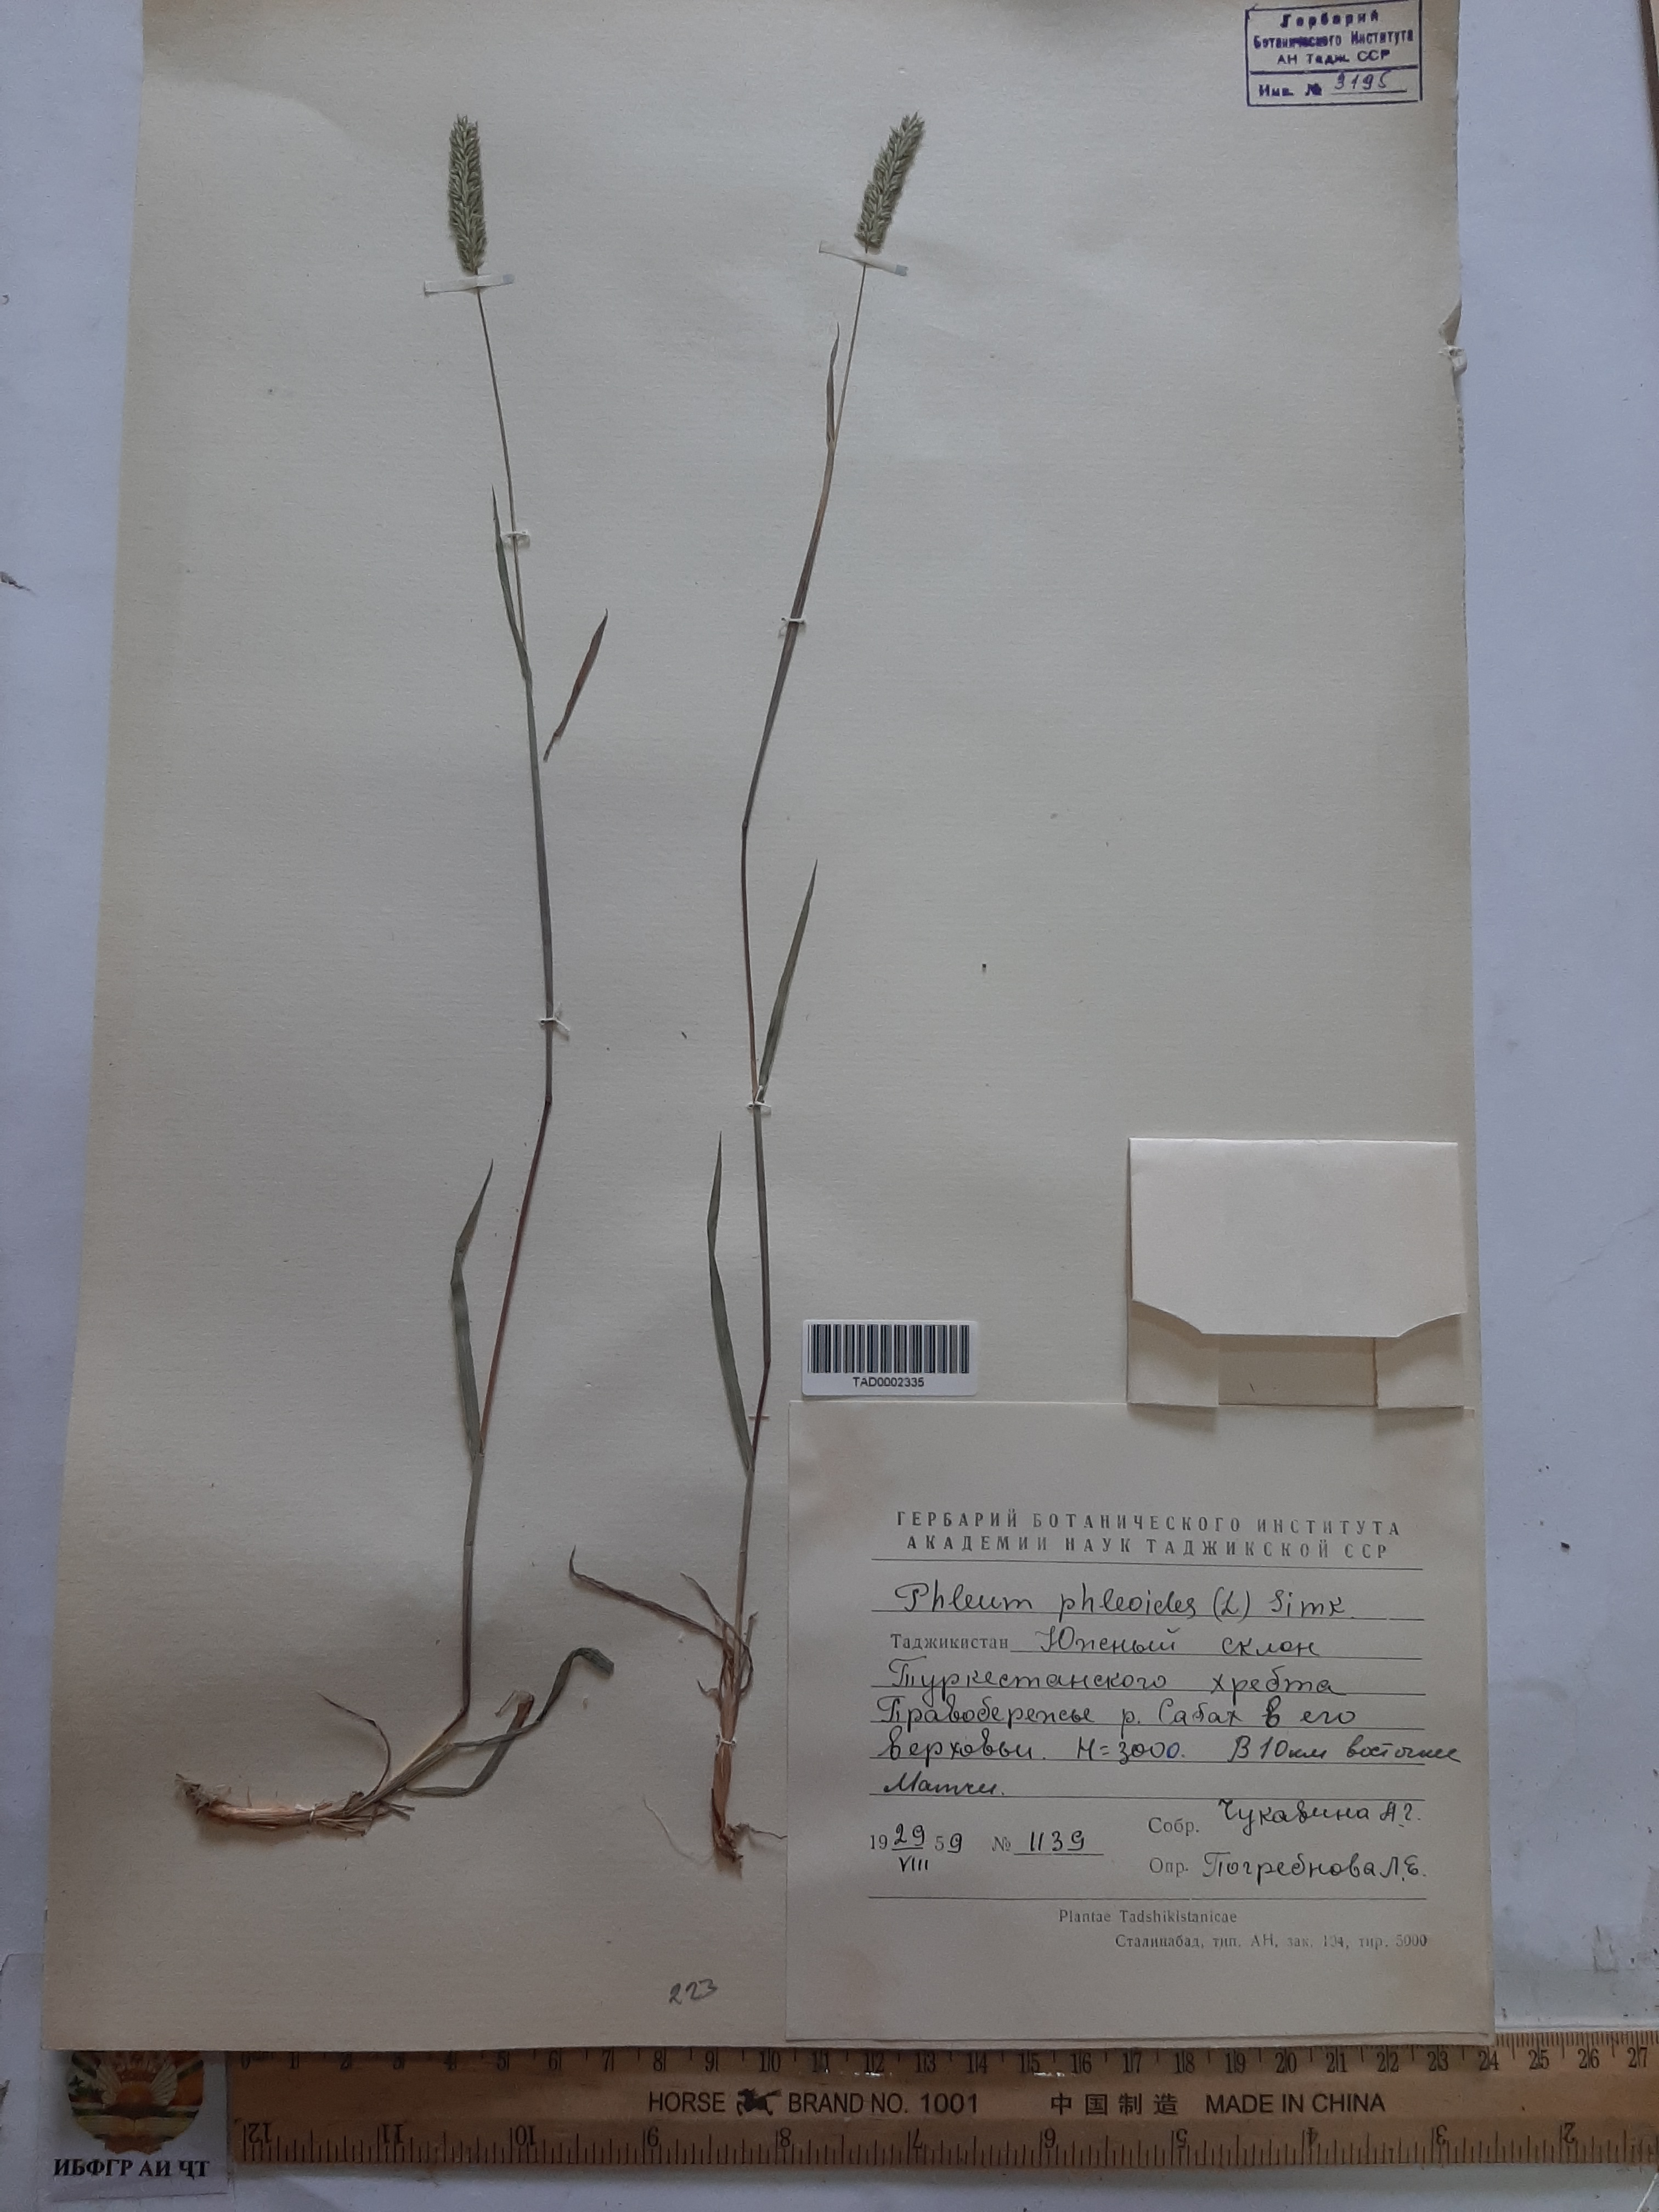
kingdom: Plantae
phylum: Tracheophyta
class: Liliopsida
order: Poales
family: Poaceae
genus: Phleum
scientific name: Phleum phleoides
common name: Purple-stem cat's-tail
